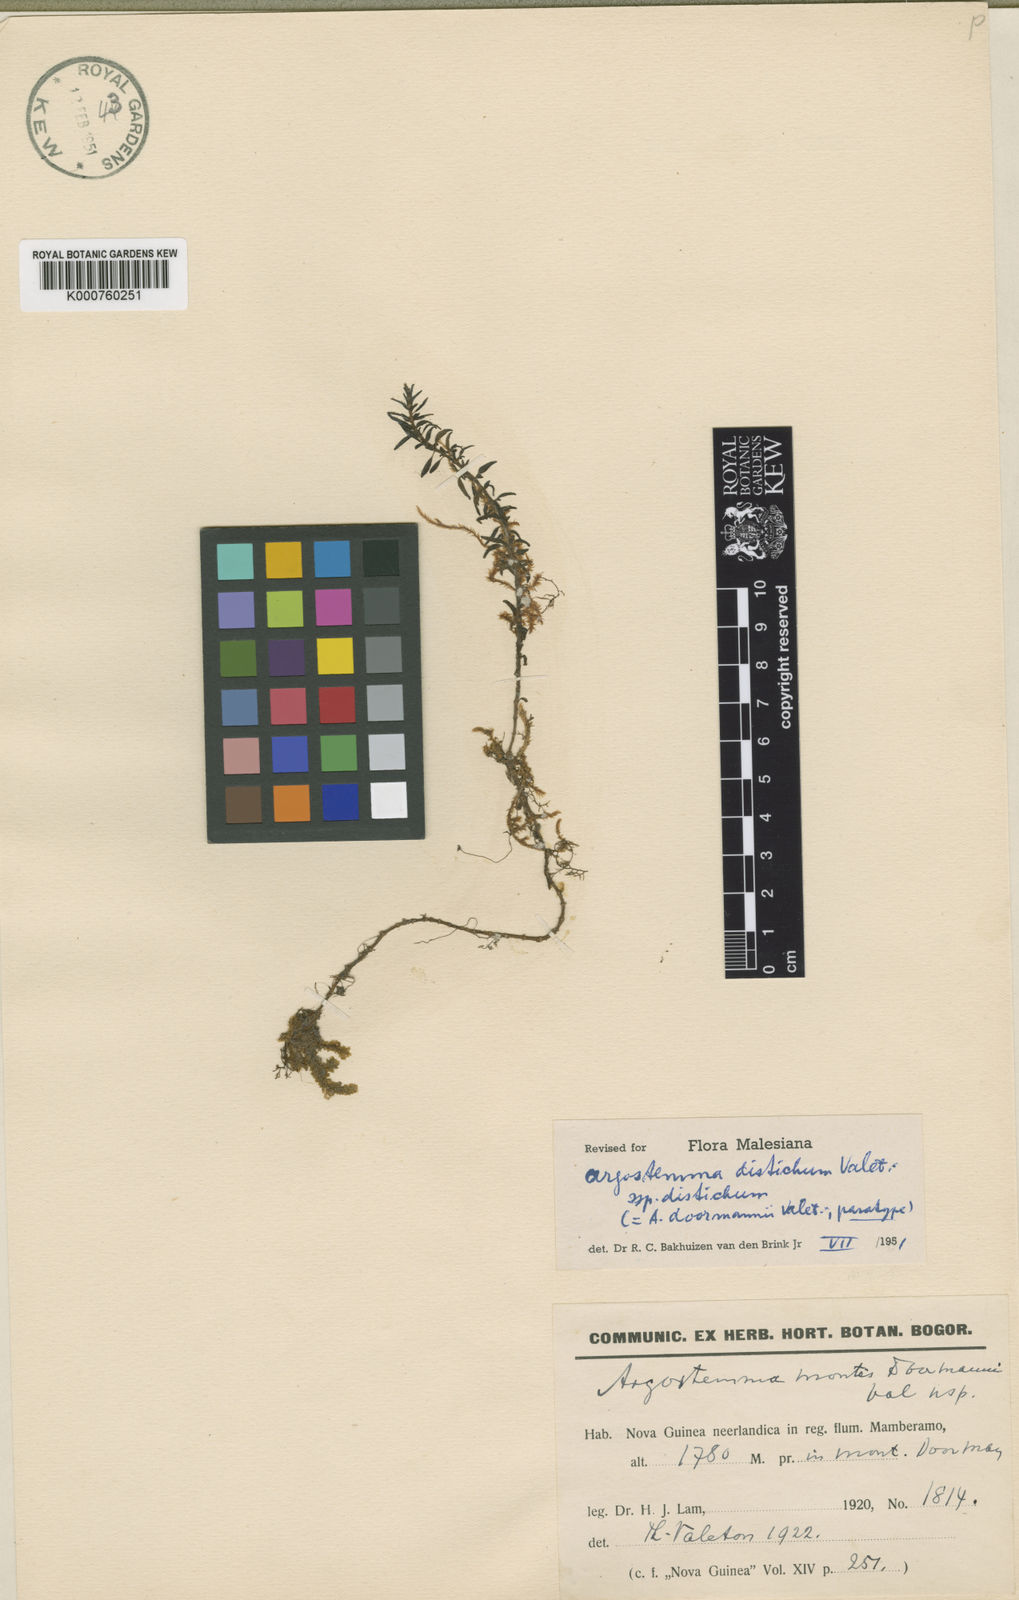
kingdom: Plantae
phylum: Tracheophyta
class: Magnoliopsida
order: Gentianales
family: Rubiaceae
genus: Argostemma
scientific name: Argostemma distichum
